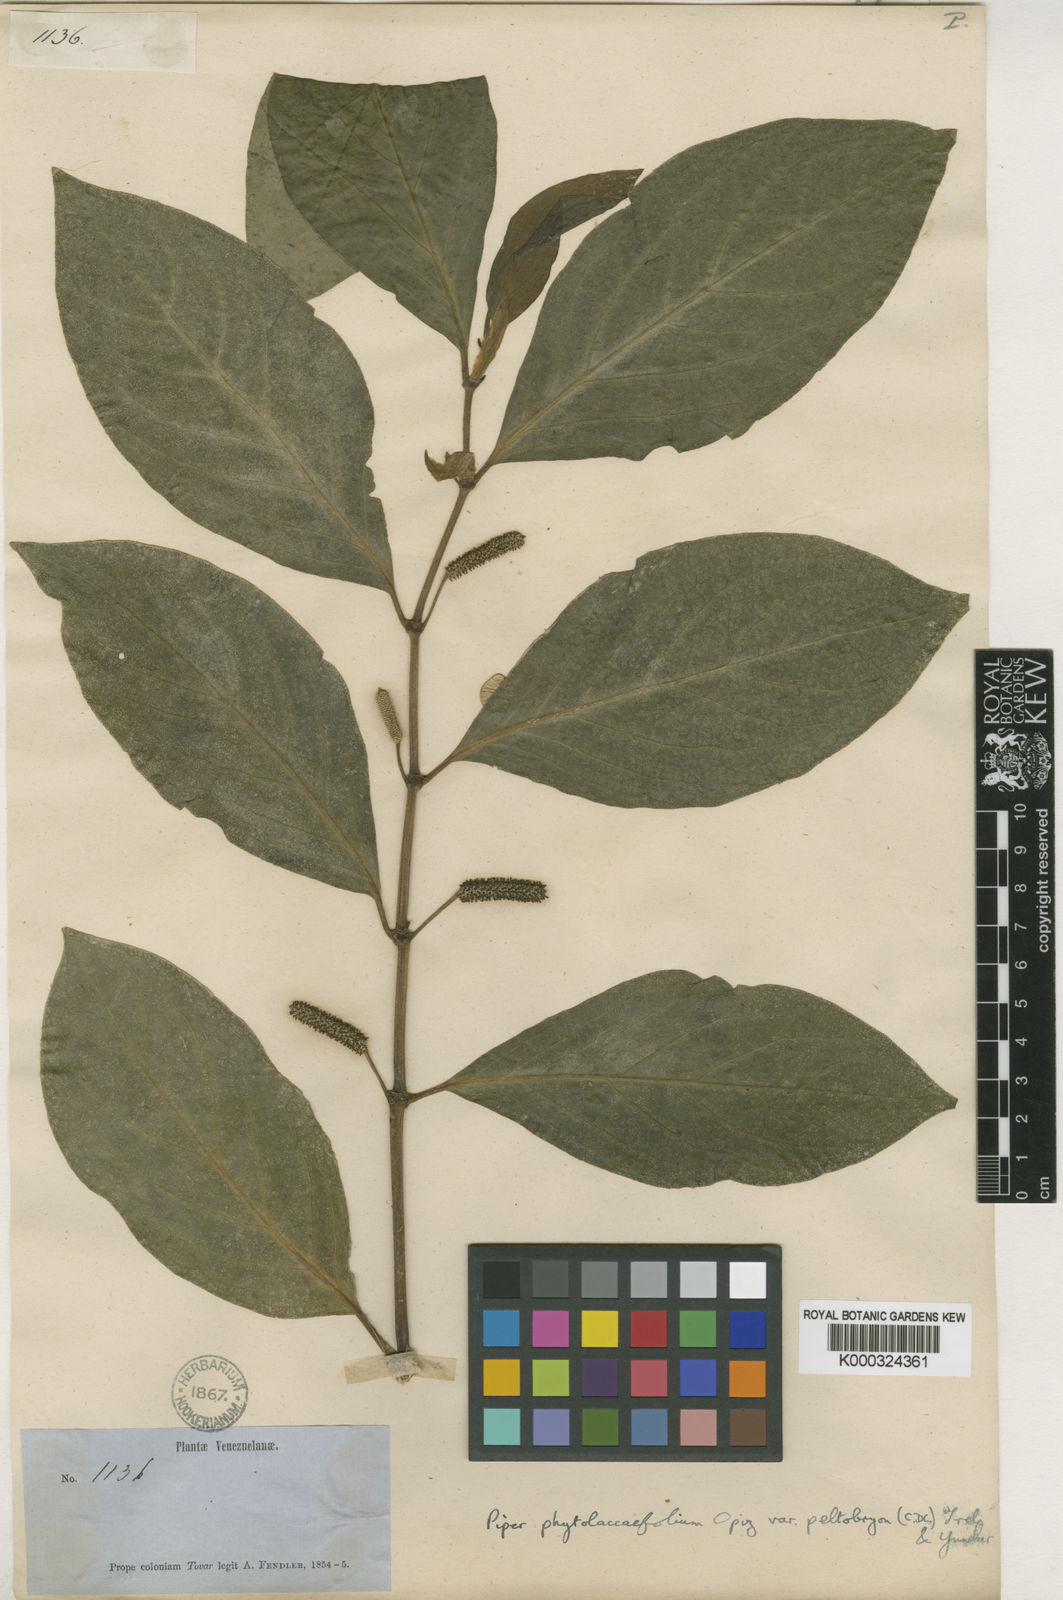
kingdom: Plantae
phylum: Tracheophyta
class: Magnoliopsida
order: Piperales
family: Piperaceae
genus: Piper
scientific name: Piper phytolaccifolium
